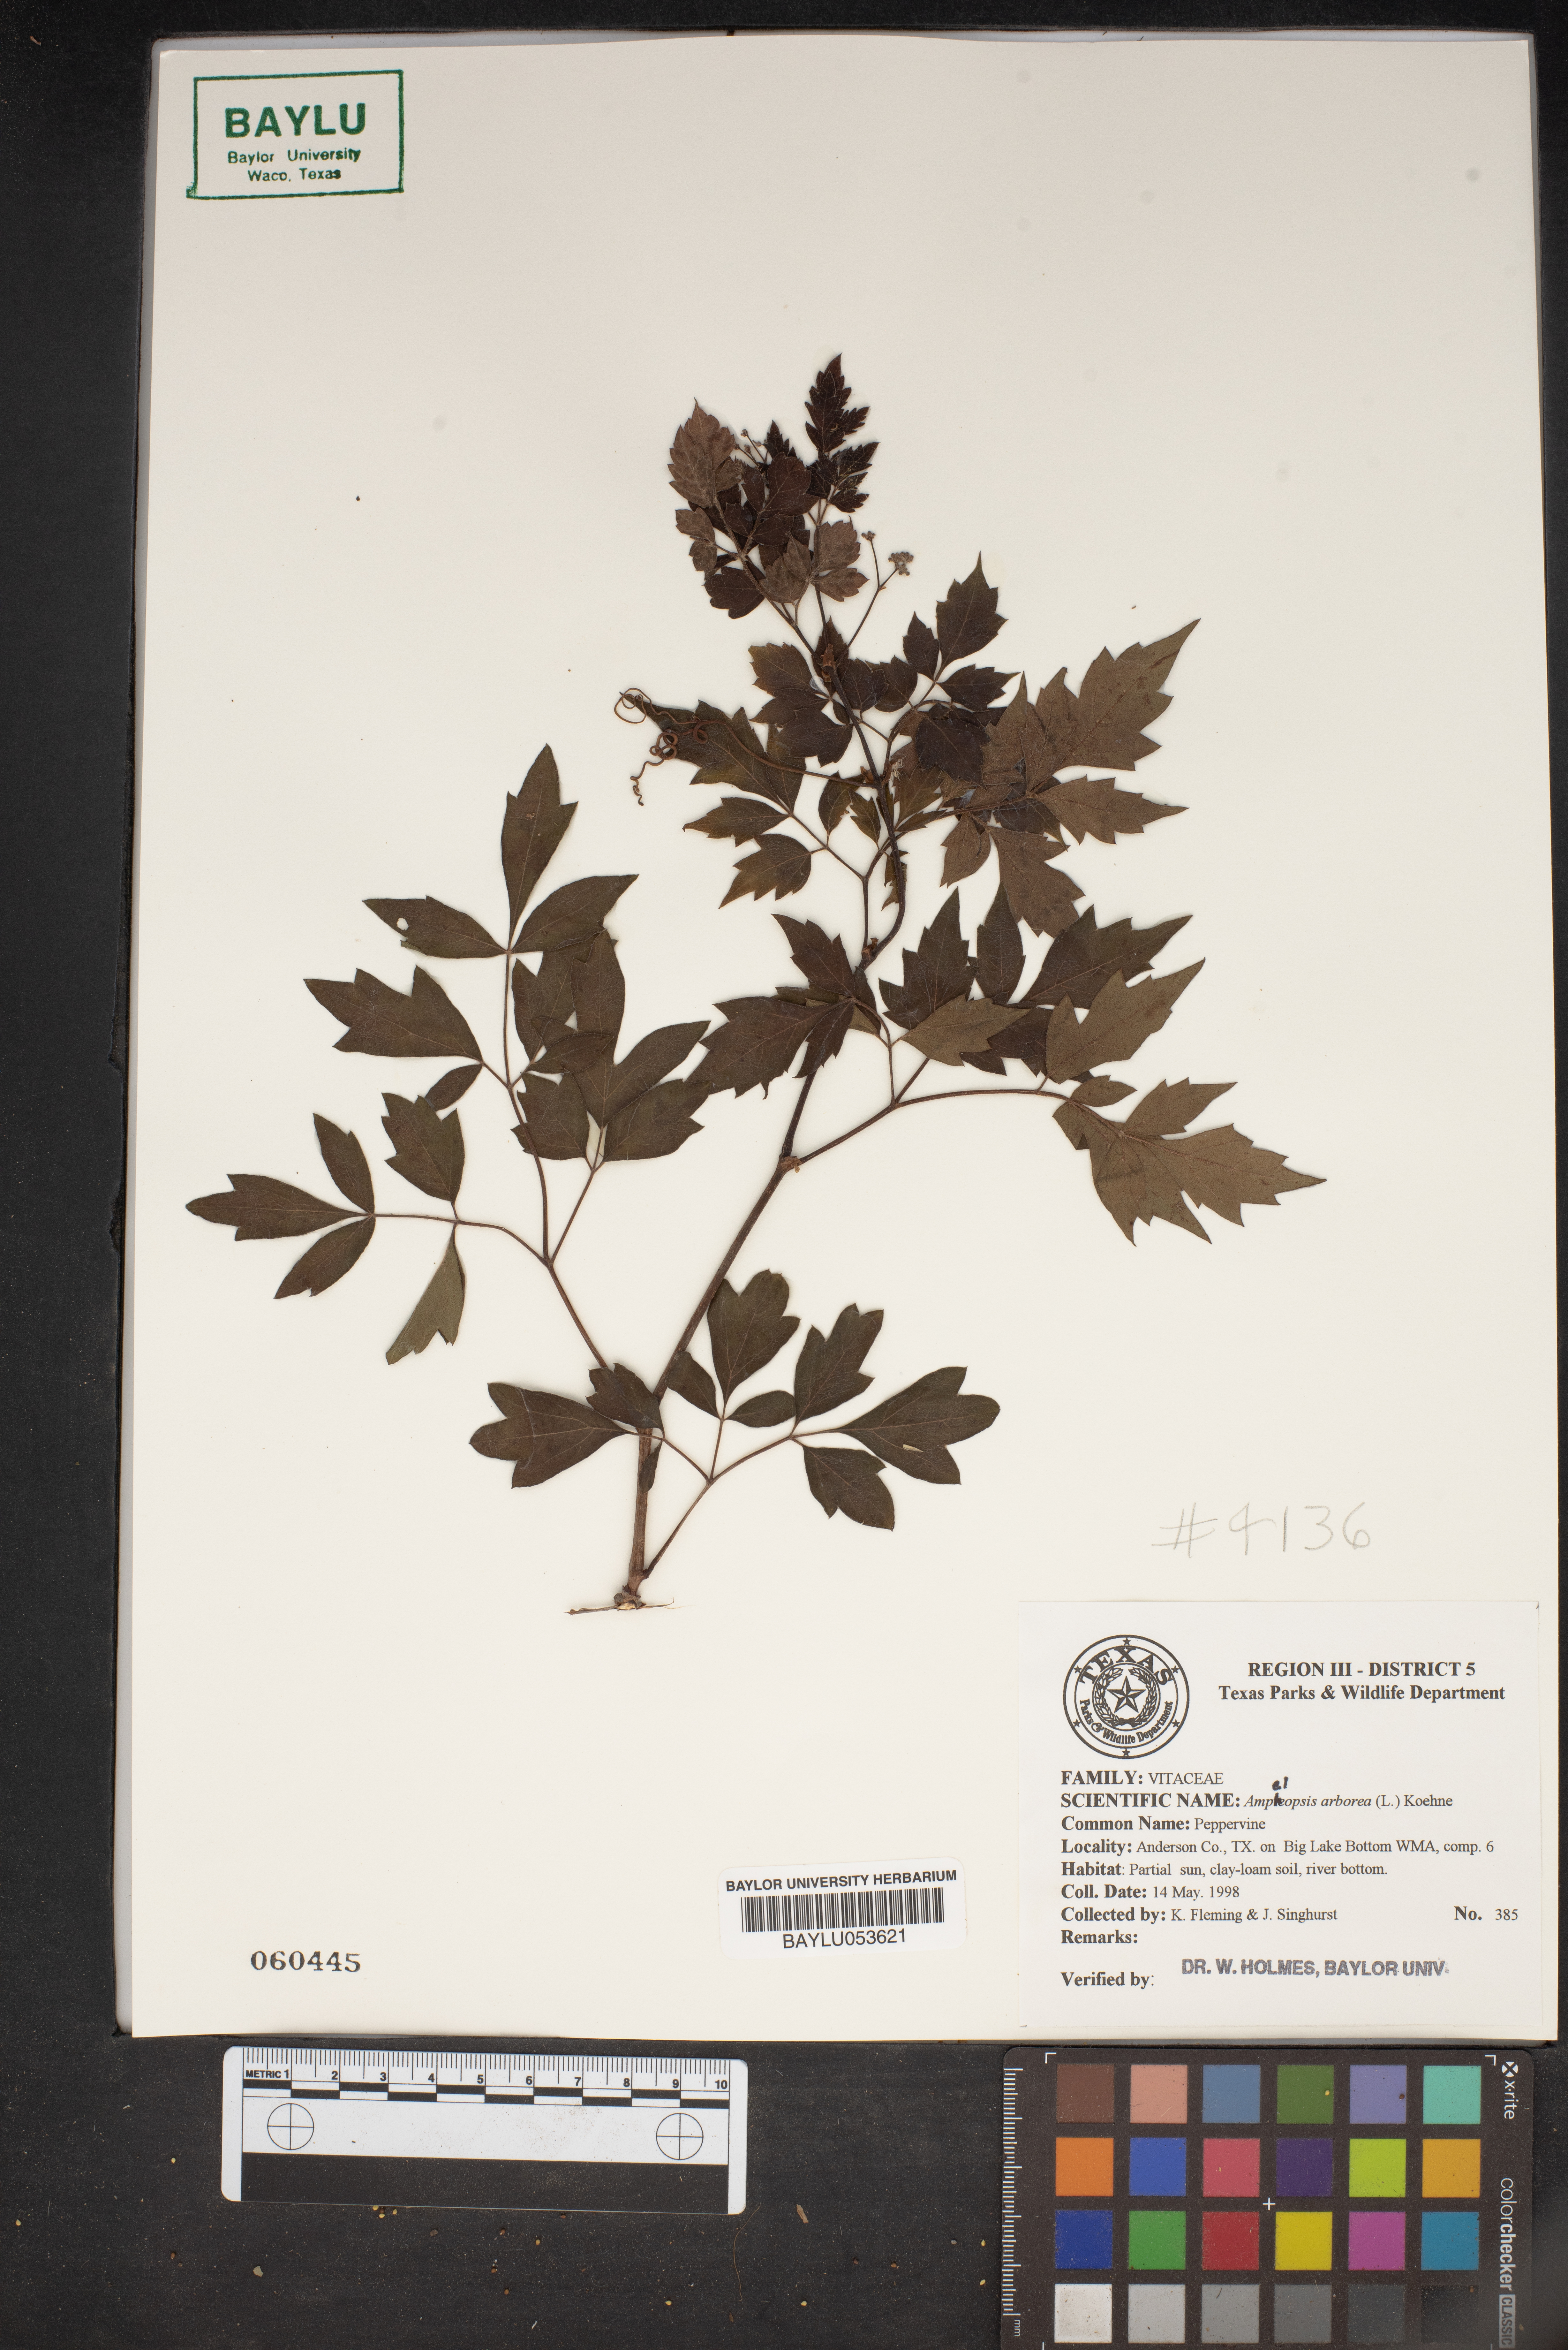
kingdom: Plantae
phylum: Tracheophyta
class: Magnoliopsida
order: Vitales
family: Vitaceae
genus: Nekemias
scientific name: Nekemias arborea
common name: Peppervine
